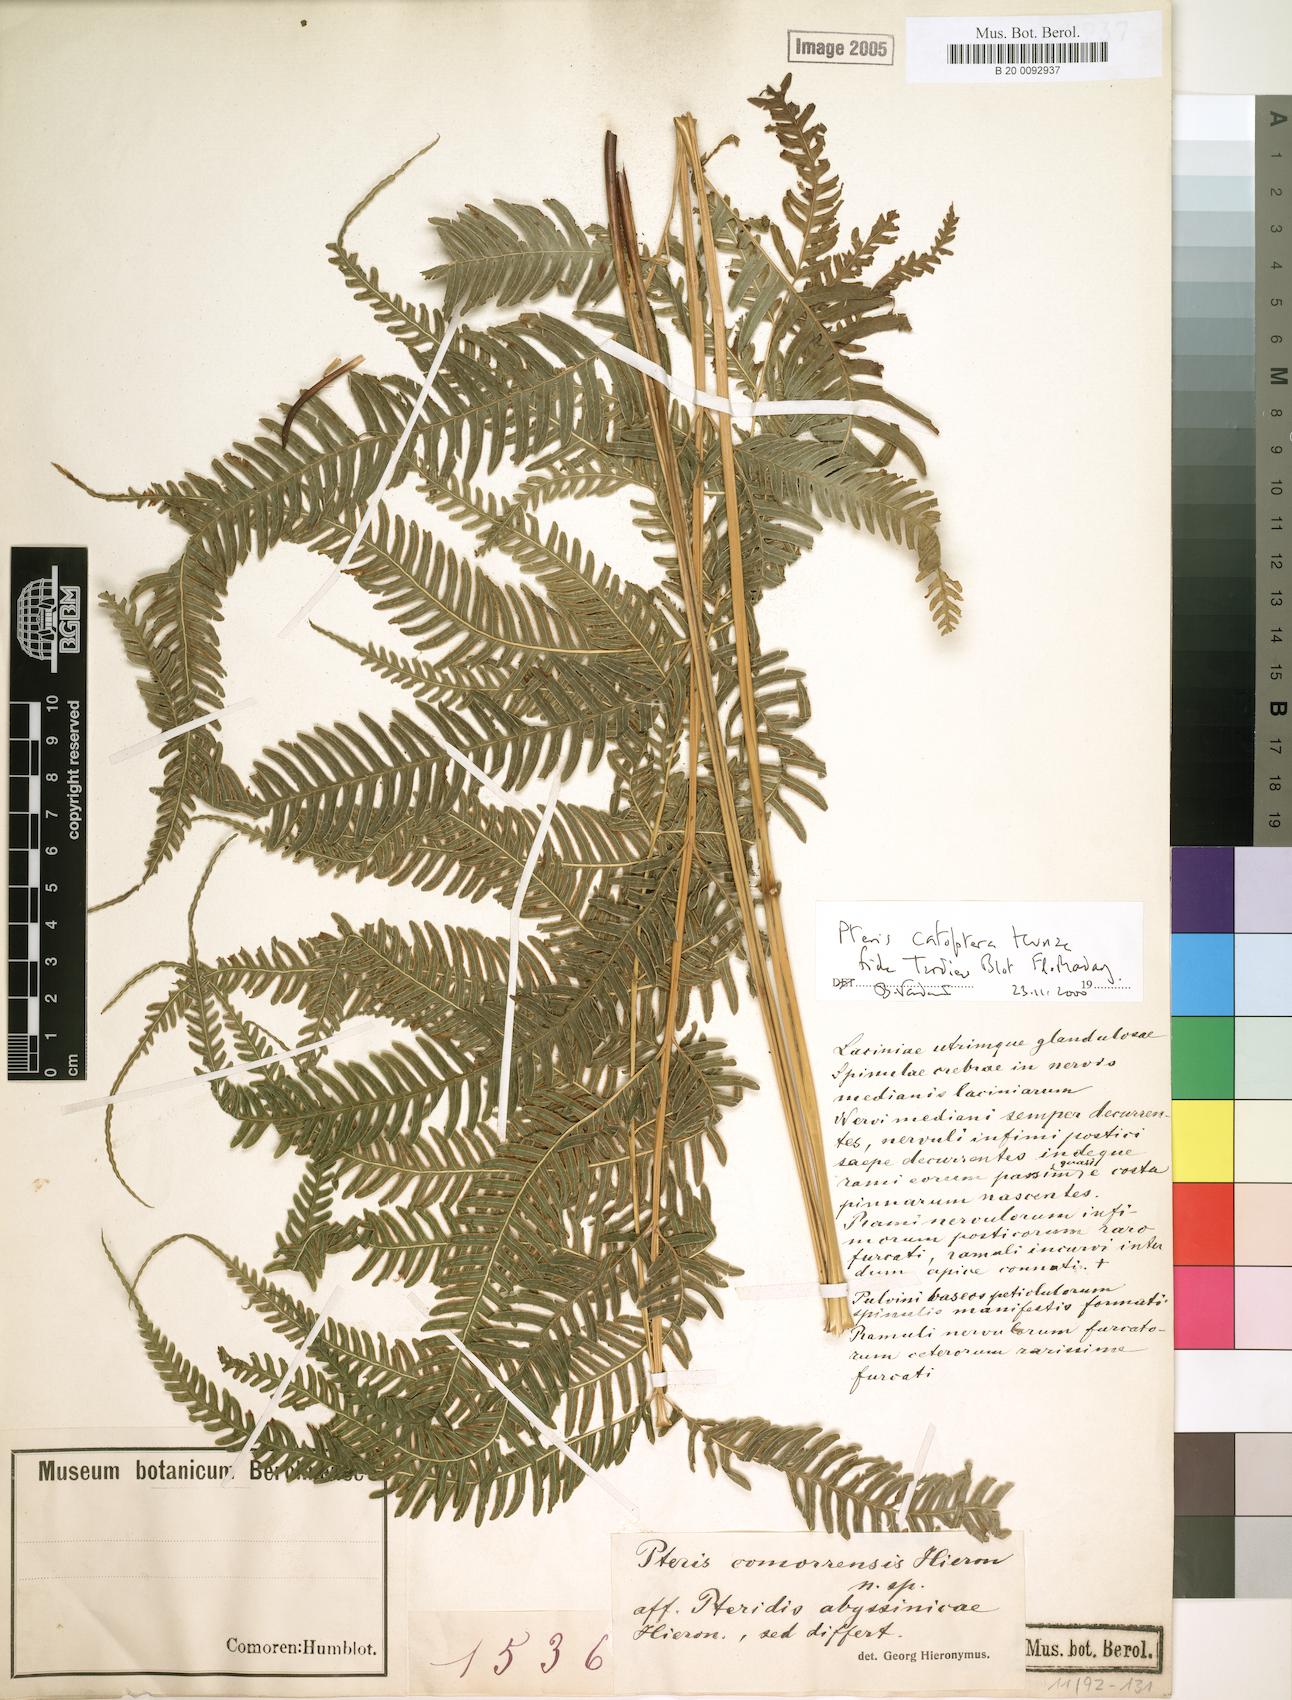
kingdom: Plantae
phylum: Tracheophyta
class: Polypodiopsida
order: Polypodiales
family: Pteridaceae
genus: Pteris
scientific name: Pteris catoptera
